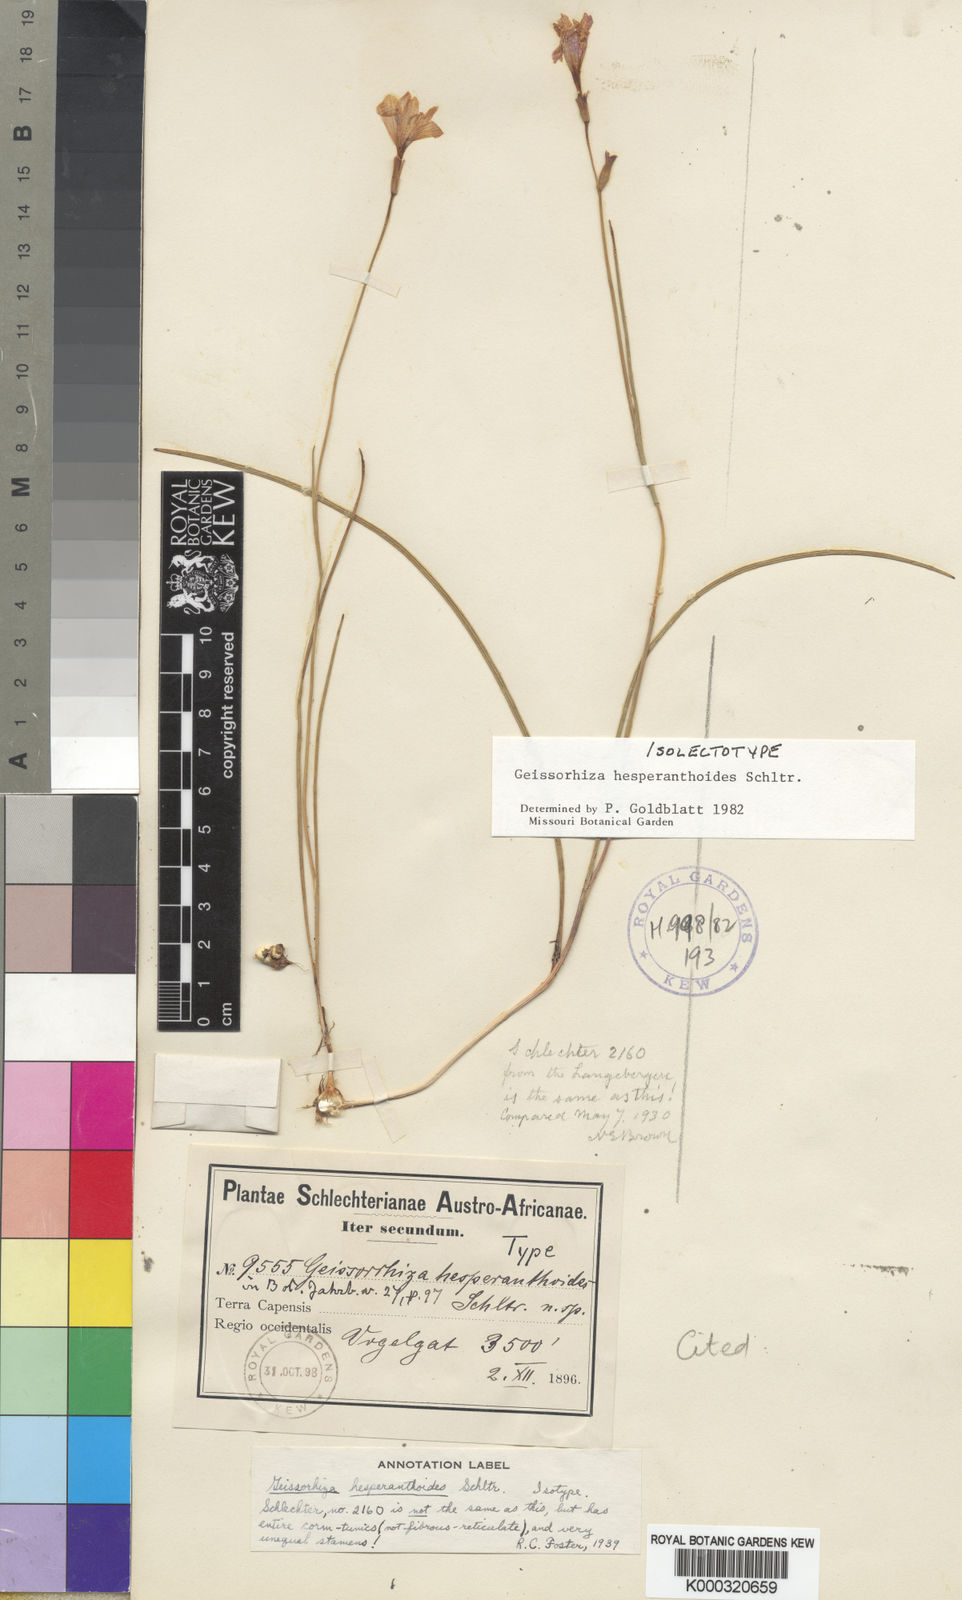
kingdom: Plantae
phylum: Tracheophyta
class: Liliopsida
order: Asparagales
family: Iridaceae
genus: Geissorhiza
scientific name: Geissorhiza hesperanthoides
